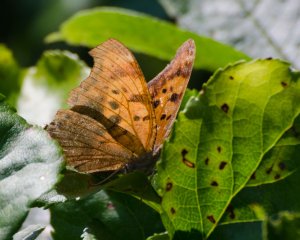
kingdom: Animalia
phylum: Arthropoda
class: Insecta
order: Lepidoptera
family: Nymphalidae
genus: Polygonia
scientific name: Polygonia
